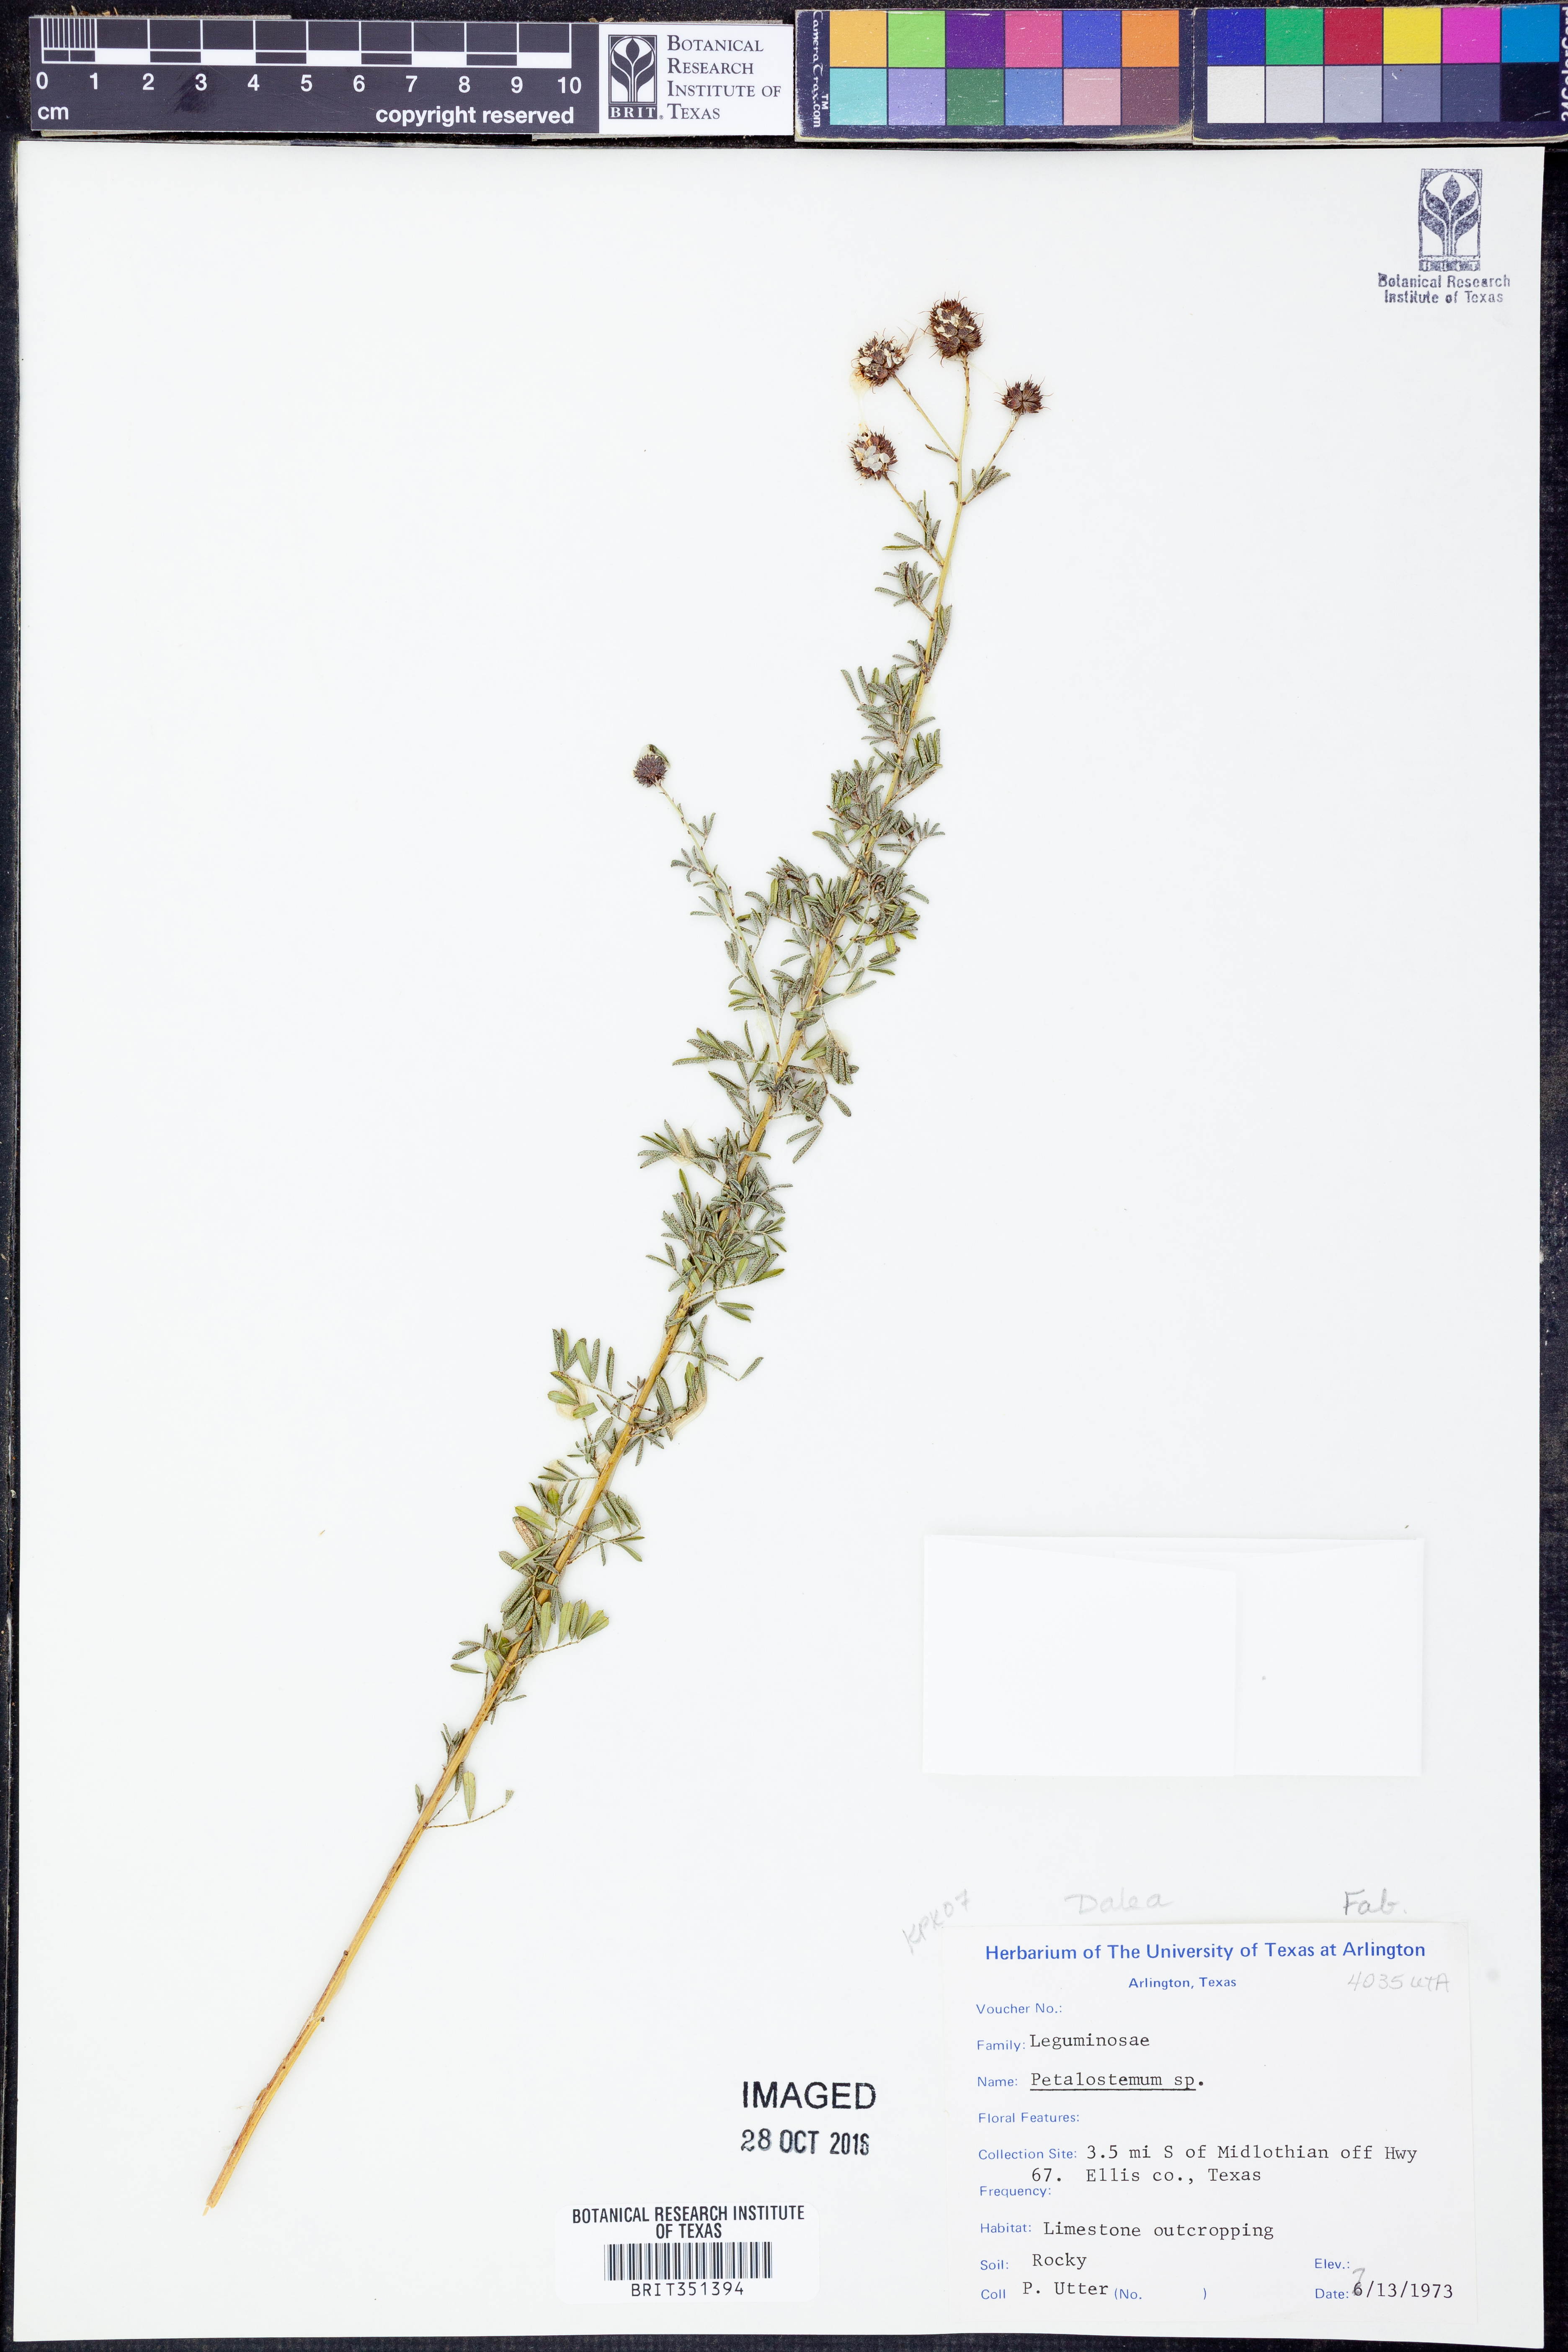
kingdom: Plantae
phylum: Tracheophyta
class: Magnoliopsida
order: Fabales
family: Fabaceae
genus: Dalea
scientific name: Dalea
